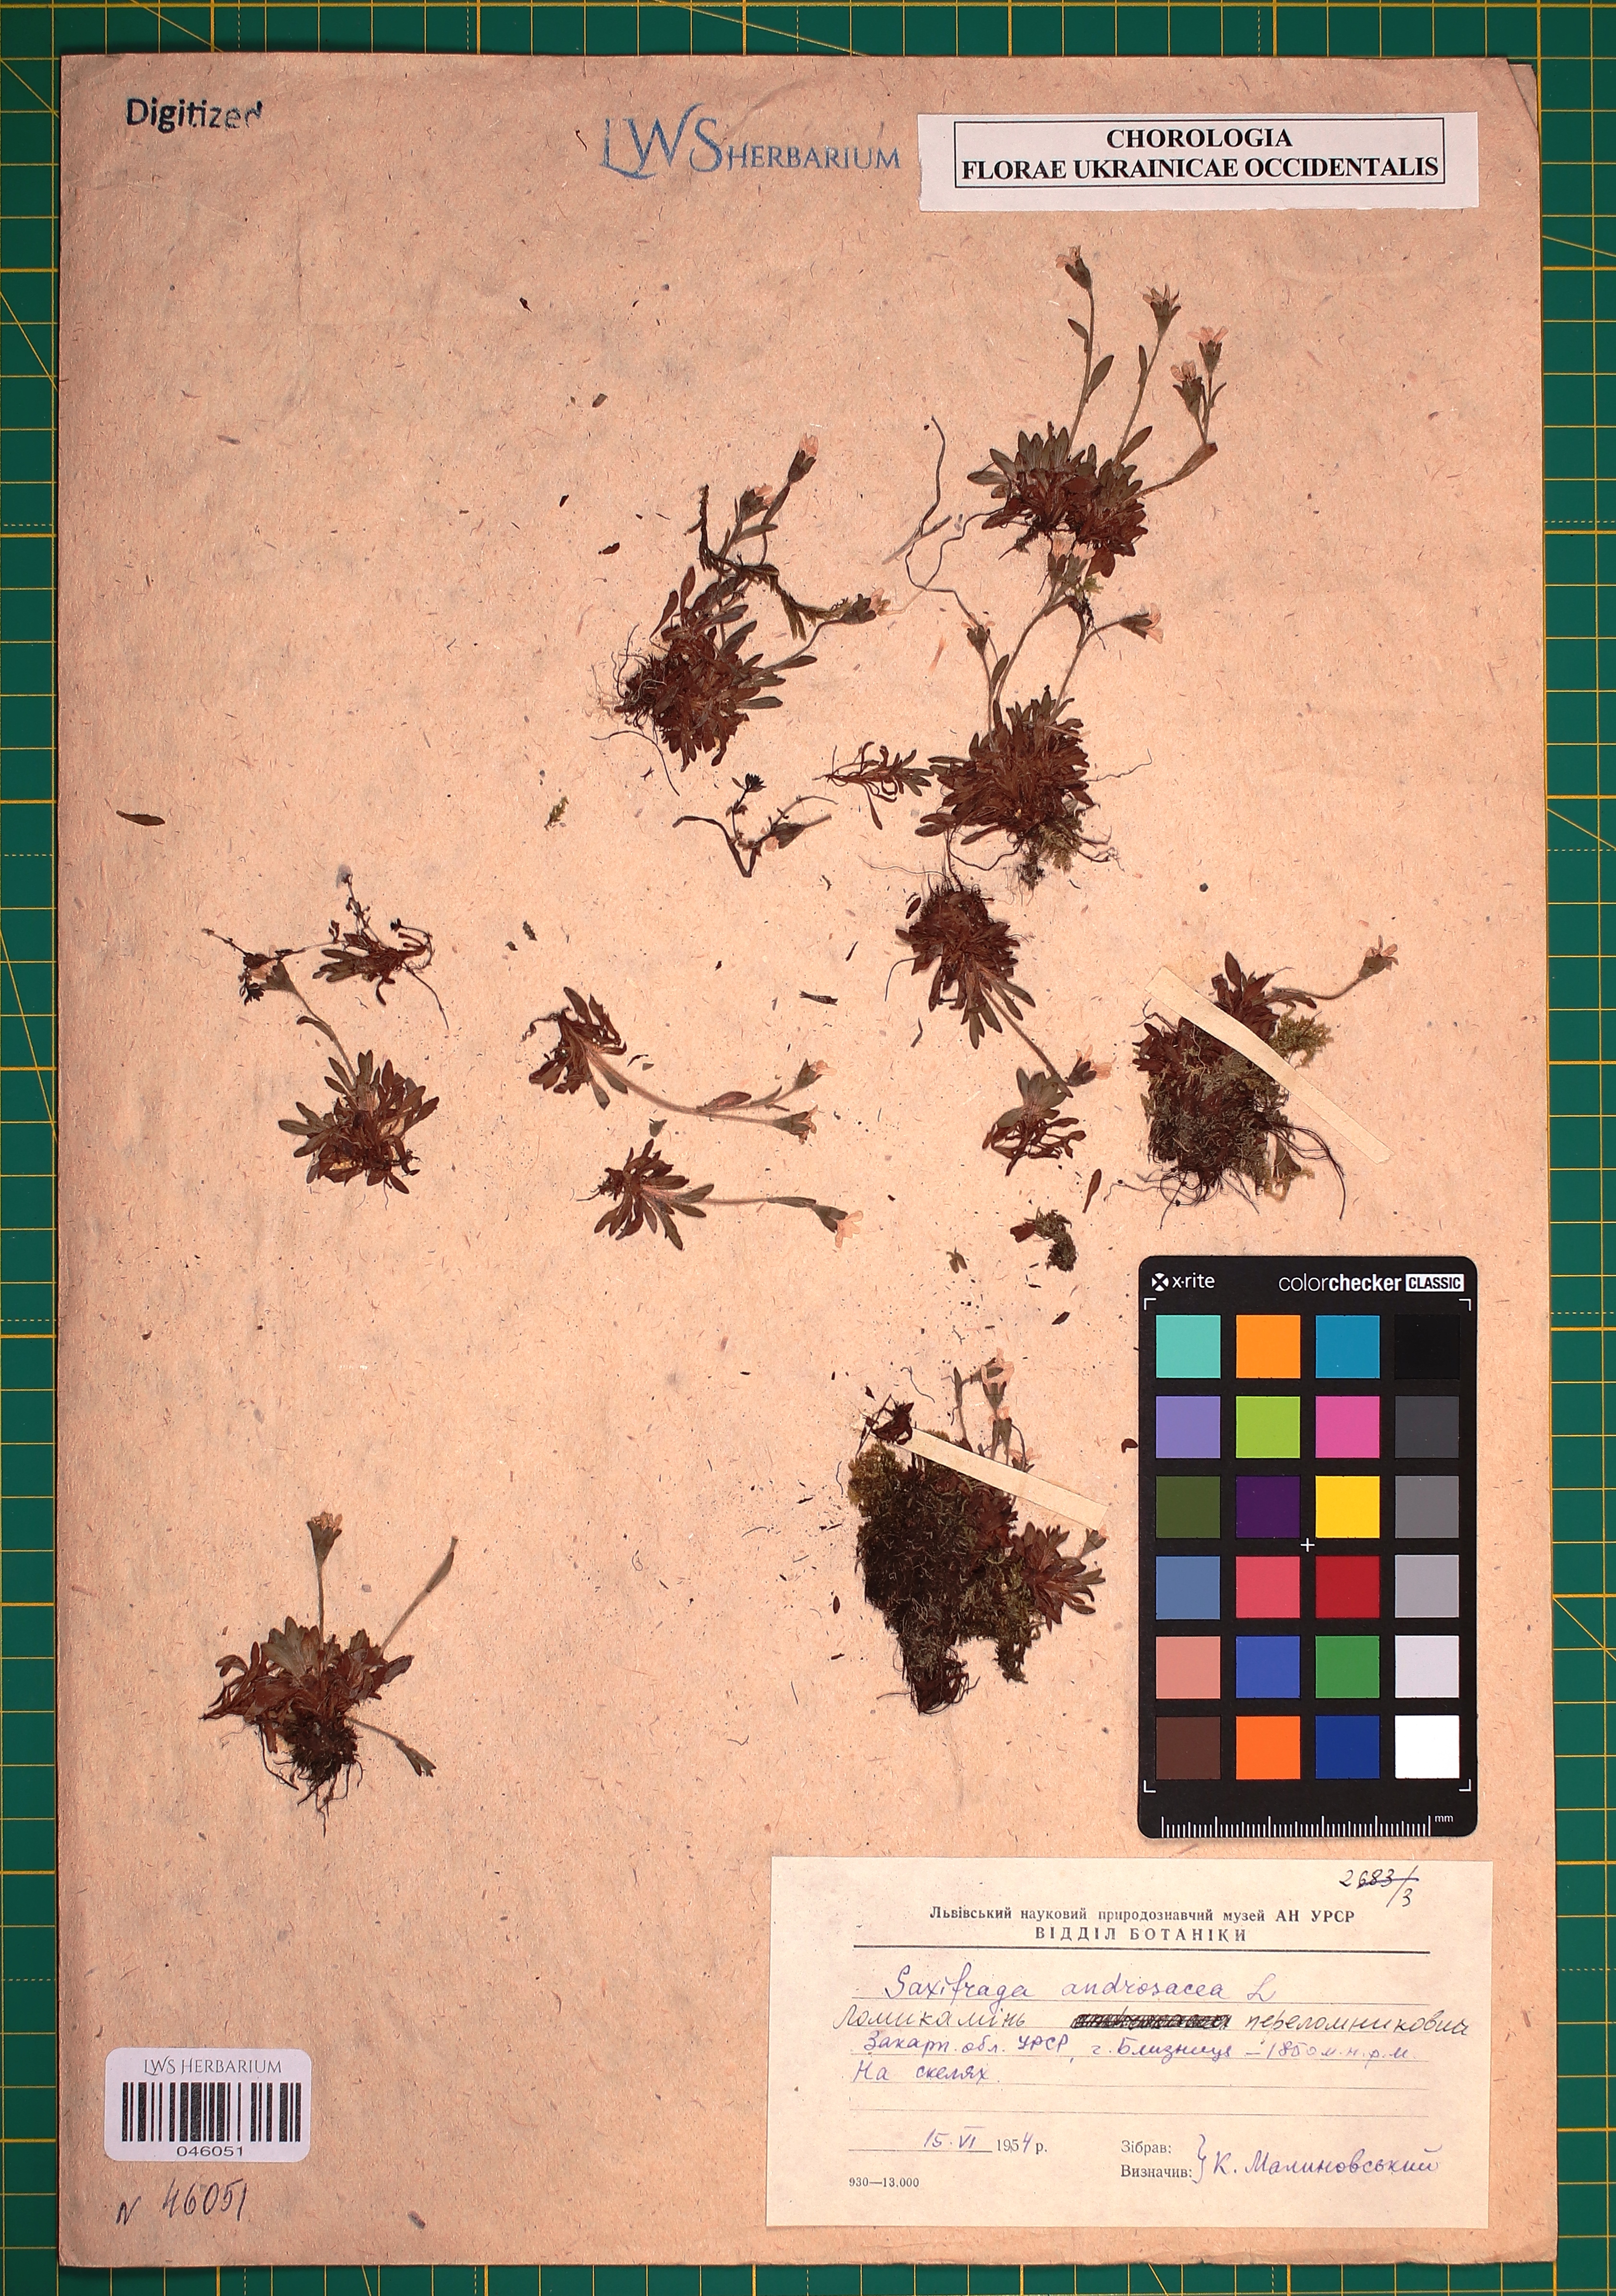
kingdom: Plantae
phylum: Tracheophyta
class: Magnoliopsida
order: Saxifragales
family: Saxifragaceae
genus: Saxifraga
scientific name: Saxifraga androsacea
